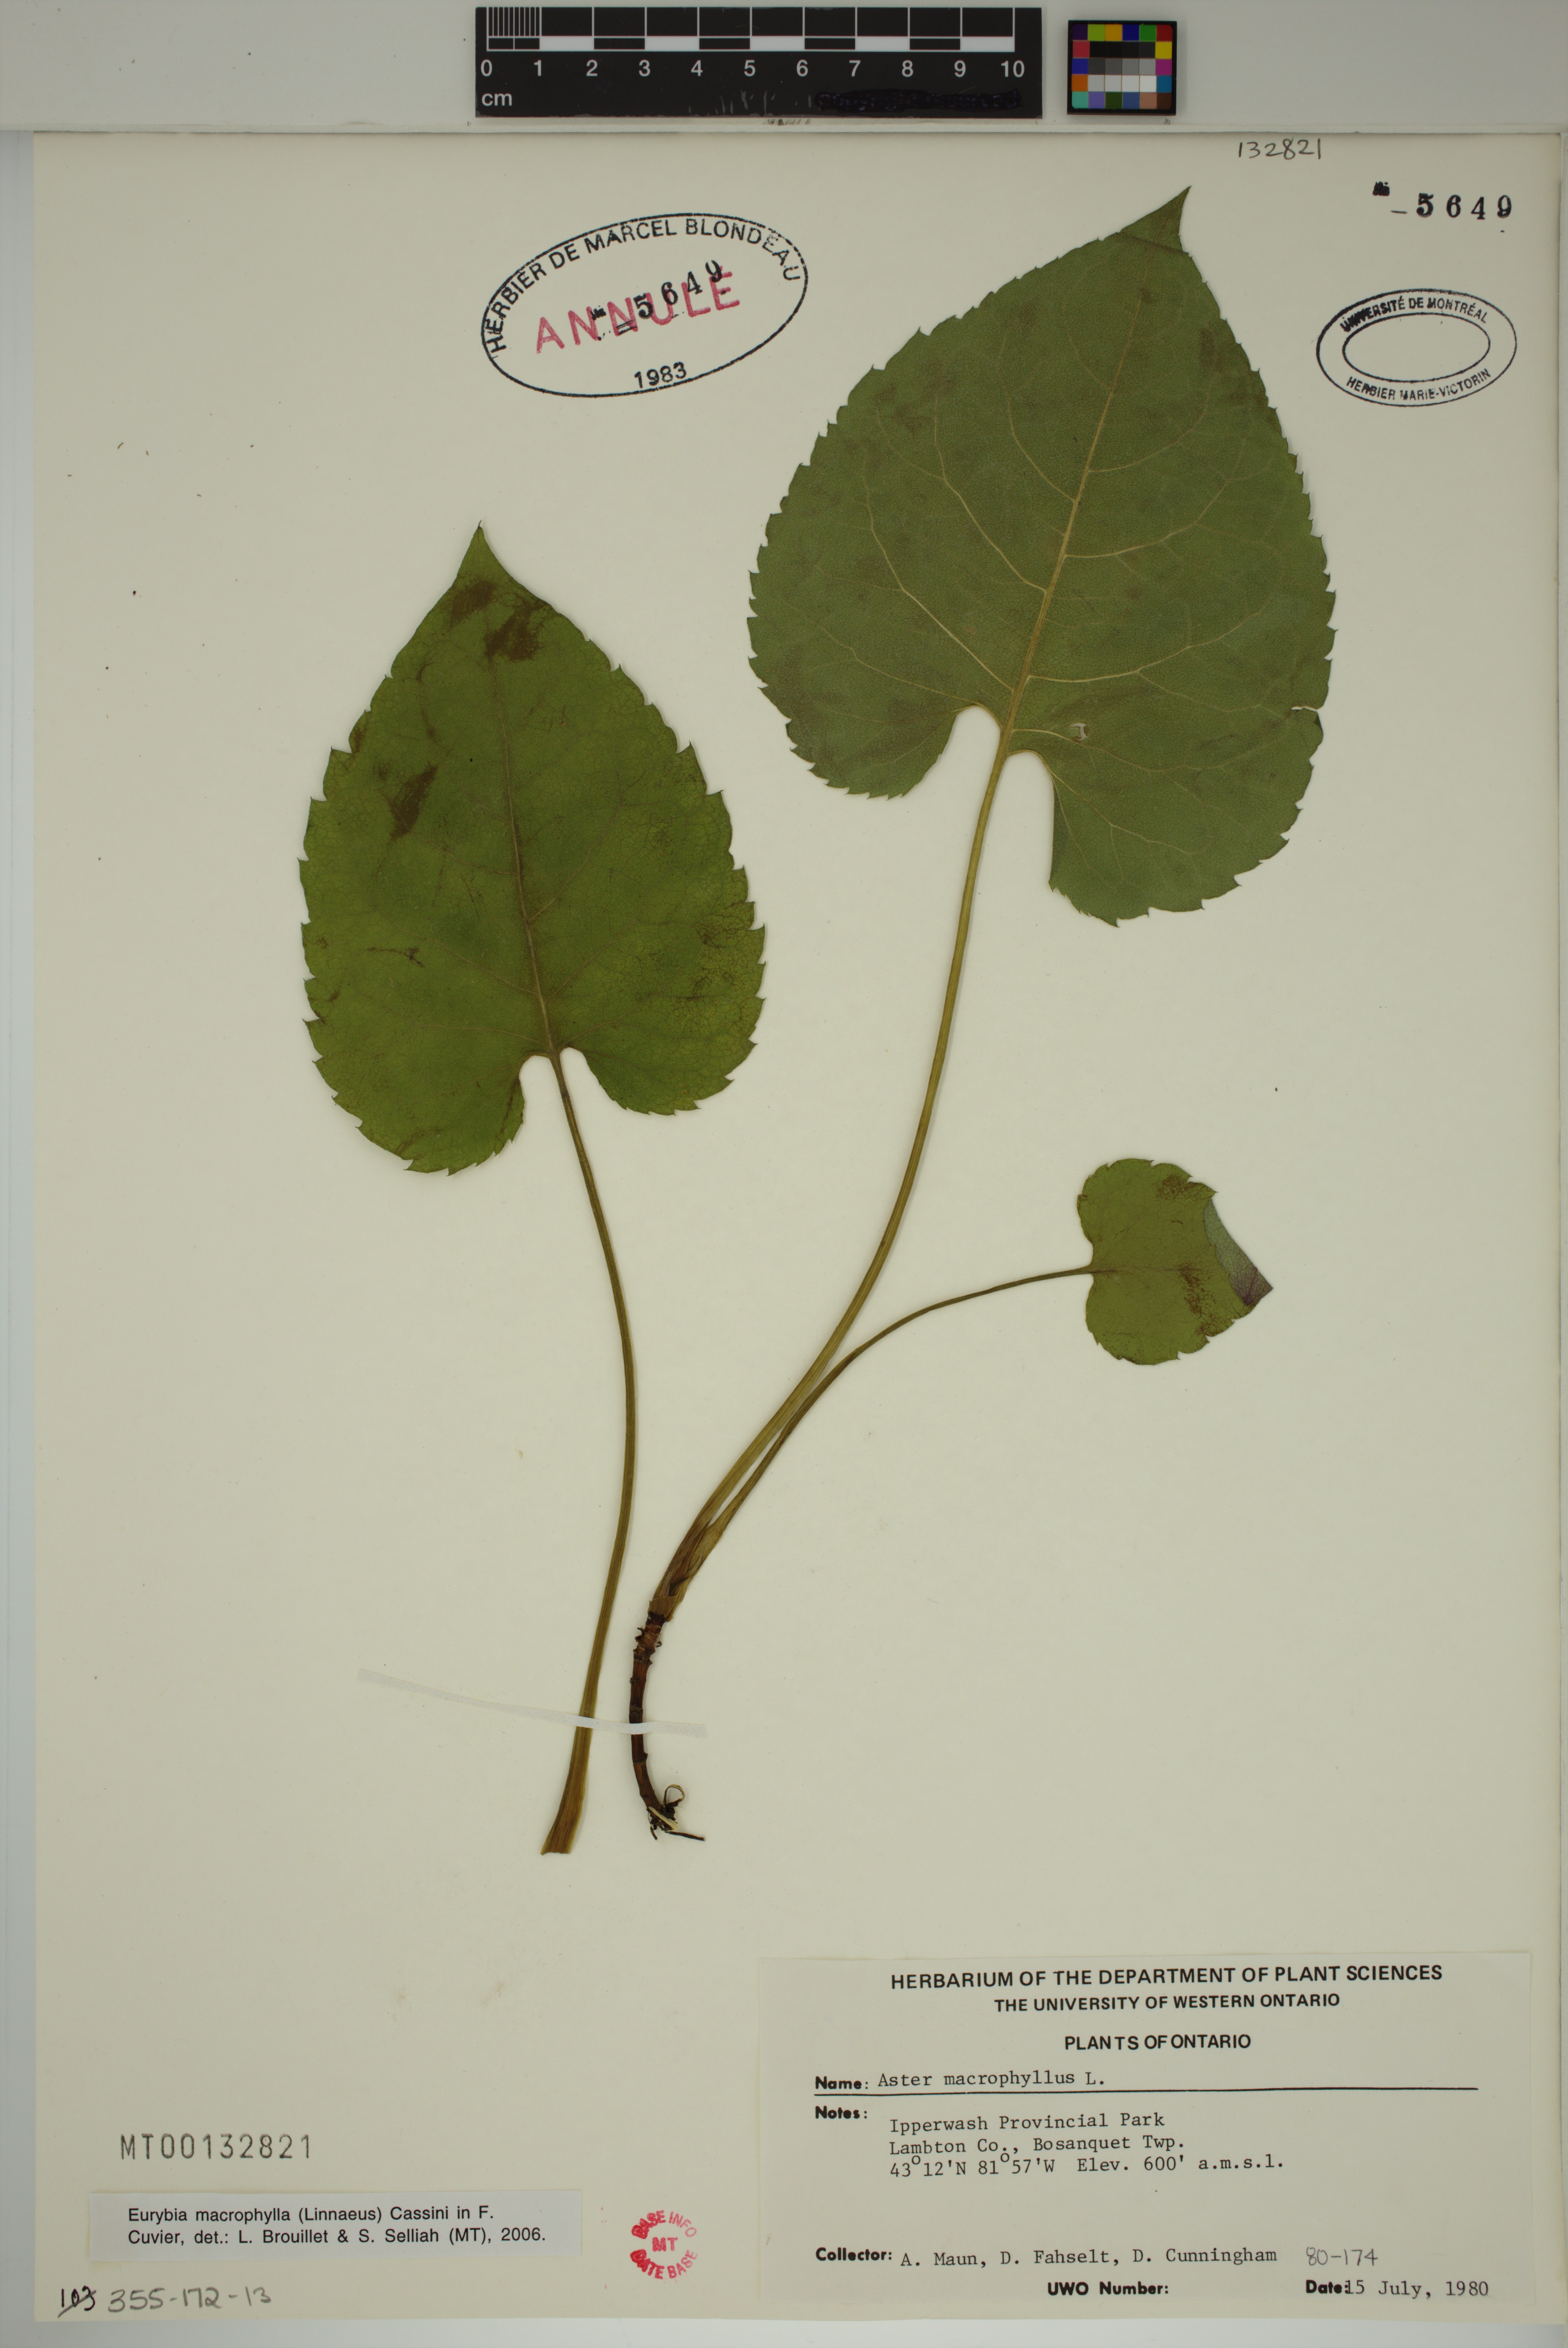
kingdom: Plantae
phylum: Tracheophyta
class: Magnoliopsida
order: Asterales
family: Asteraceae
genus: Eurybia
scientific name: Eurybia macrophylla
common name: Big-leaved aster
